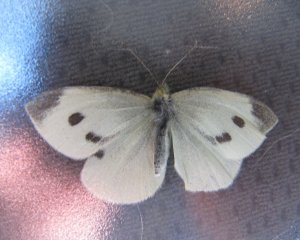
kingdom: Animalia
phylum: Arthropoda
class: Insecta
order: Lepidoptera
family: Pieridae
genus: Pieris
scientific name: Pieris rapae
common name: Cabbage White
